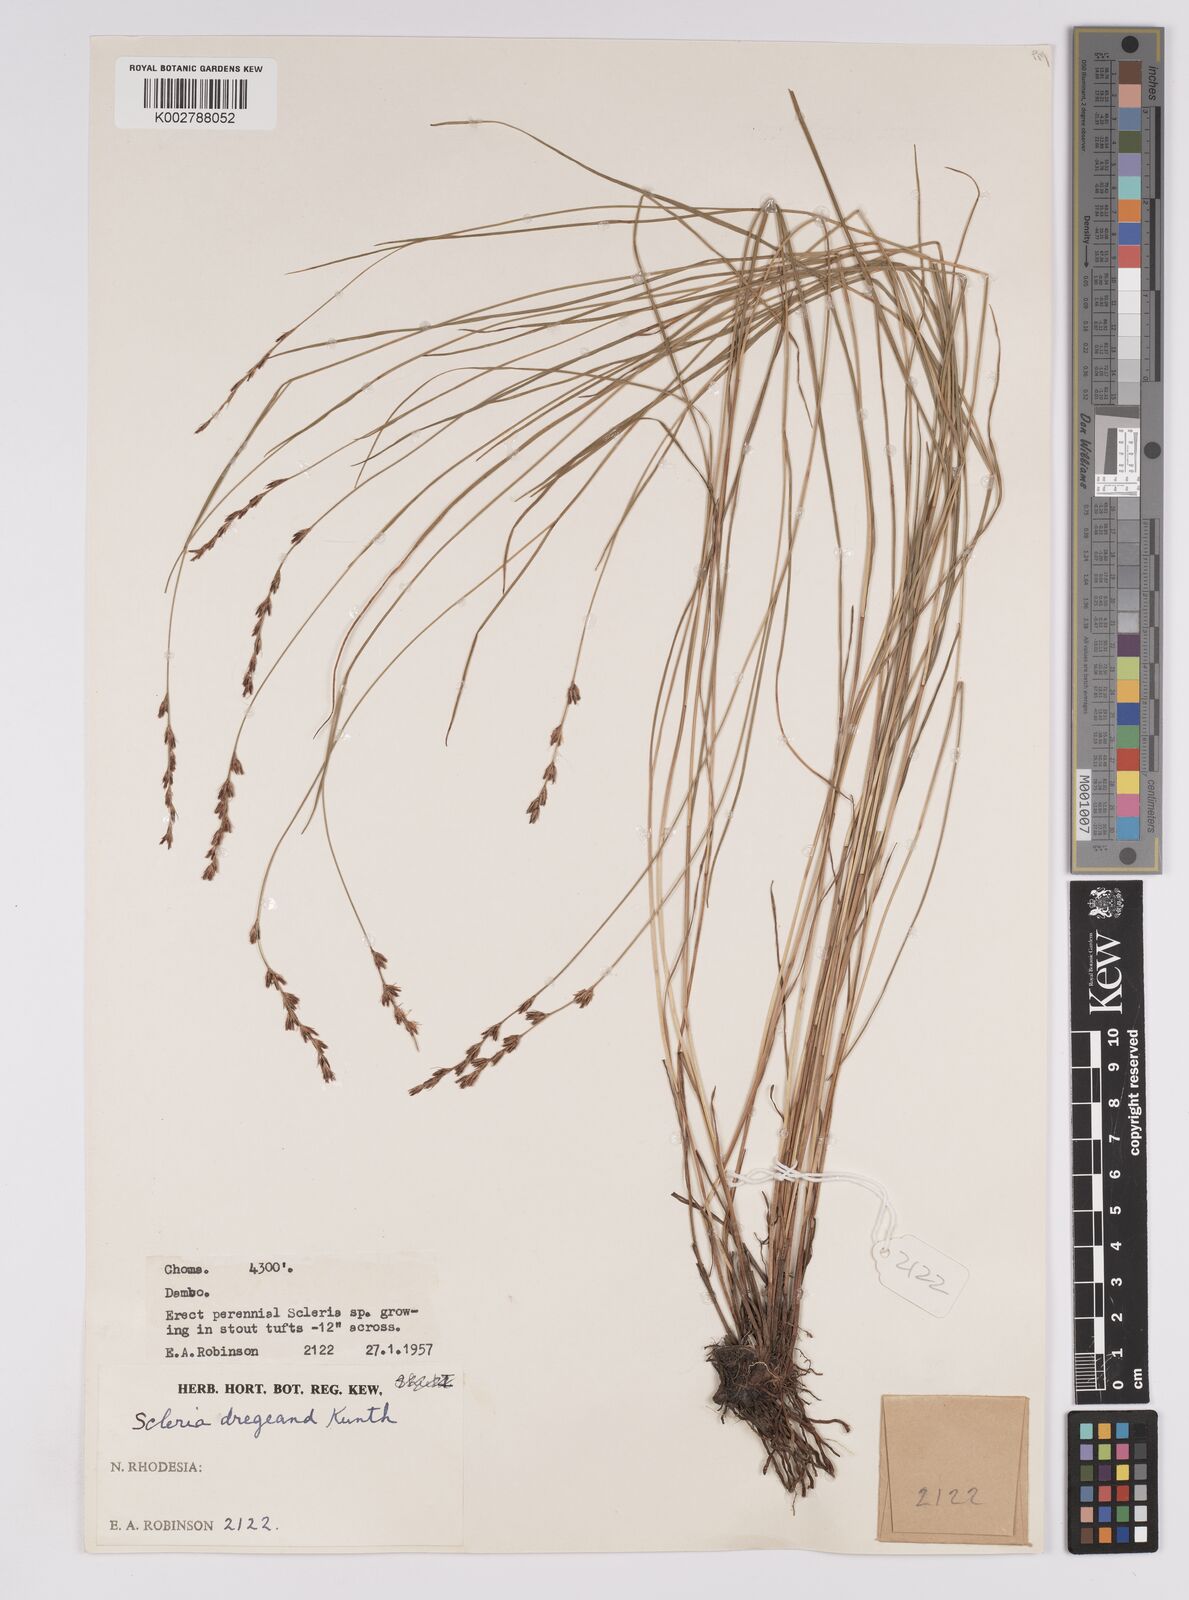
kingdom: Plantae
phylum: Tracheophyta
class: Liliopsida
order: Poales
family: Cyperaceae
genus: Scleria
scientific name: Scleria dregeana
